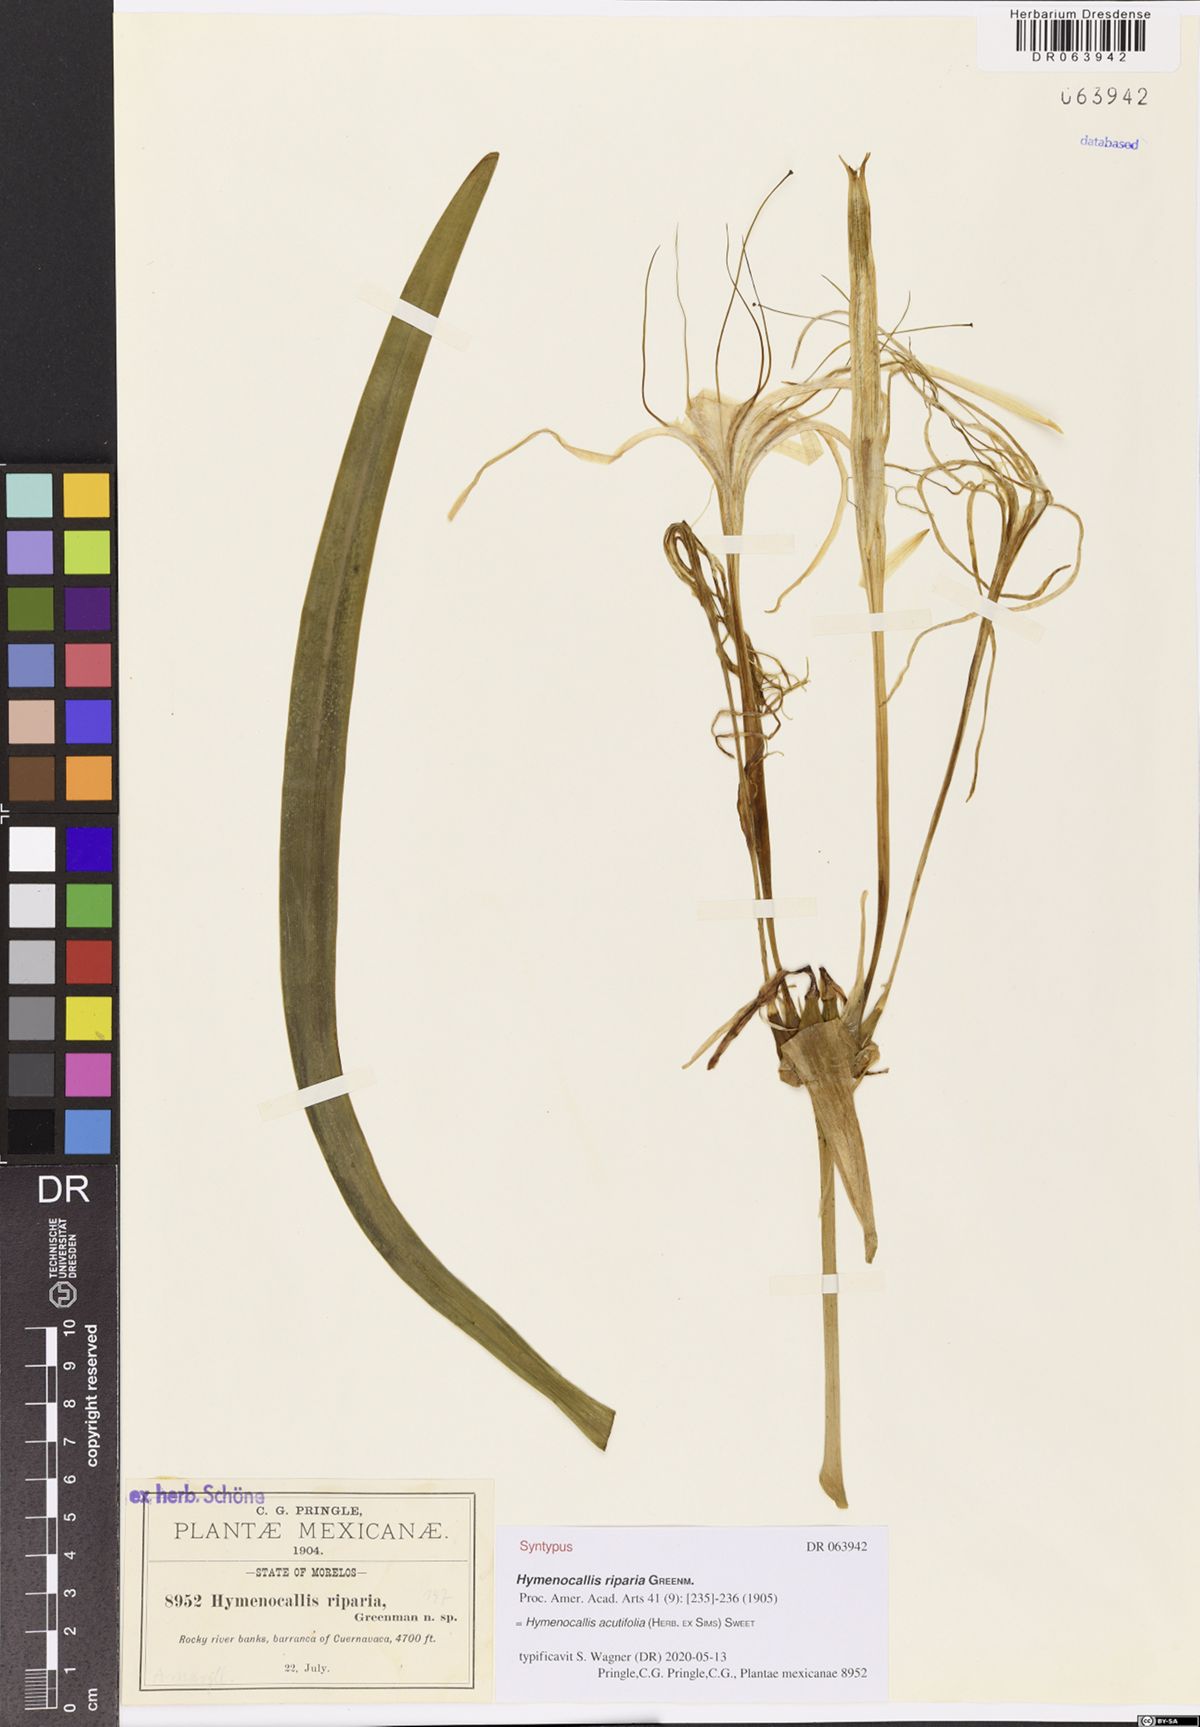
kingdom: Plantae
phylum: Tracheophyta
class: Liliopsida
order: Asparagales
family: Amaryllidaceae
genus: Hymenocallis
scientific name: Hymenocallis acutifolia
